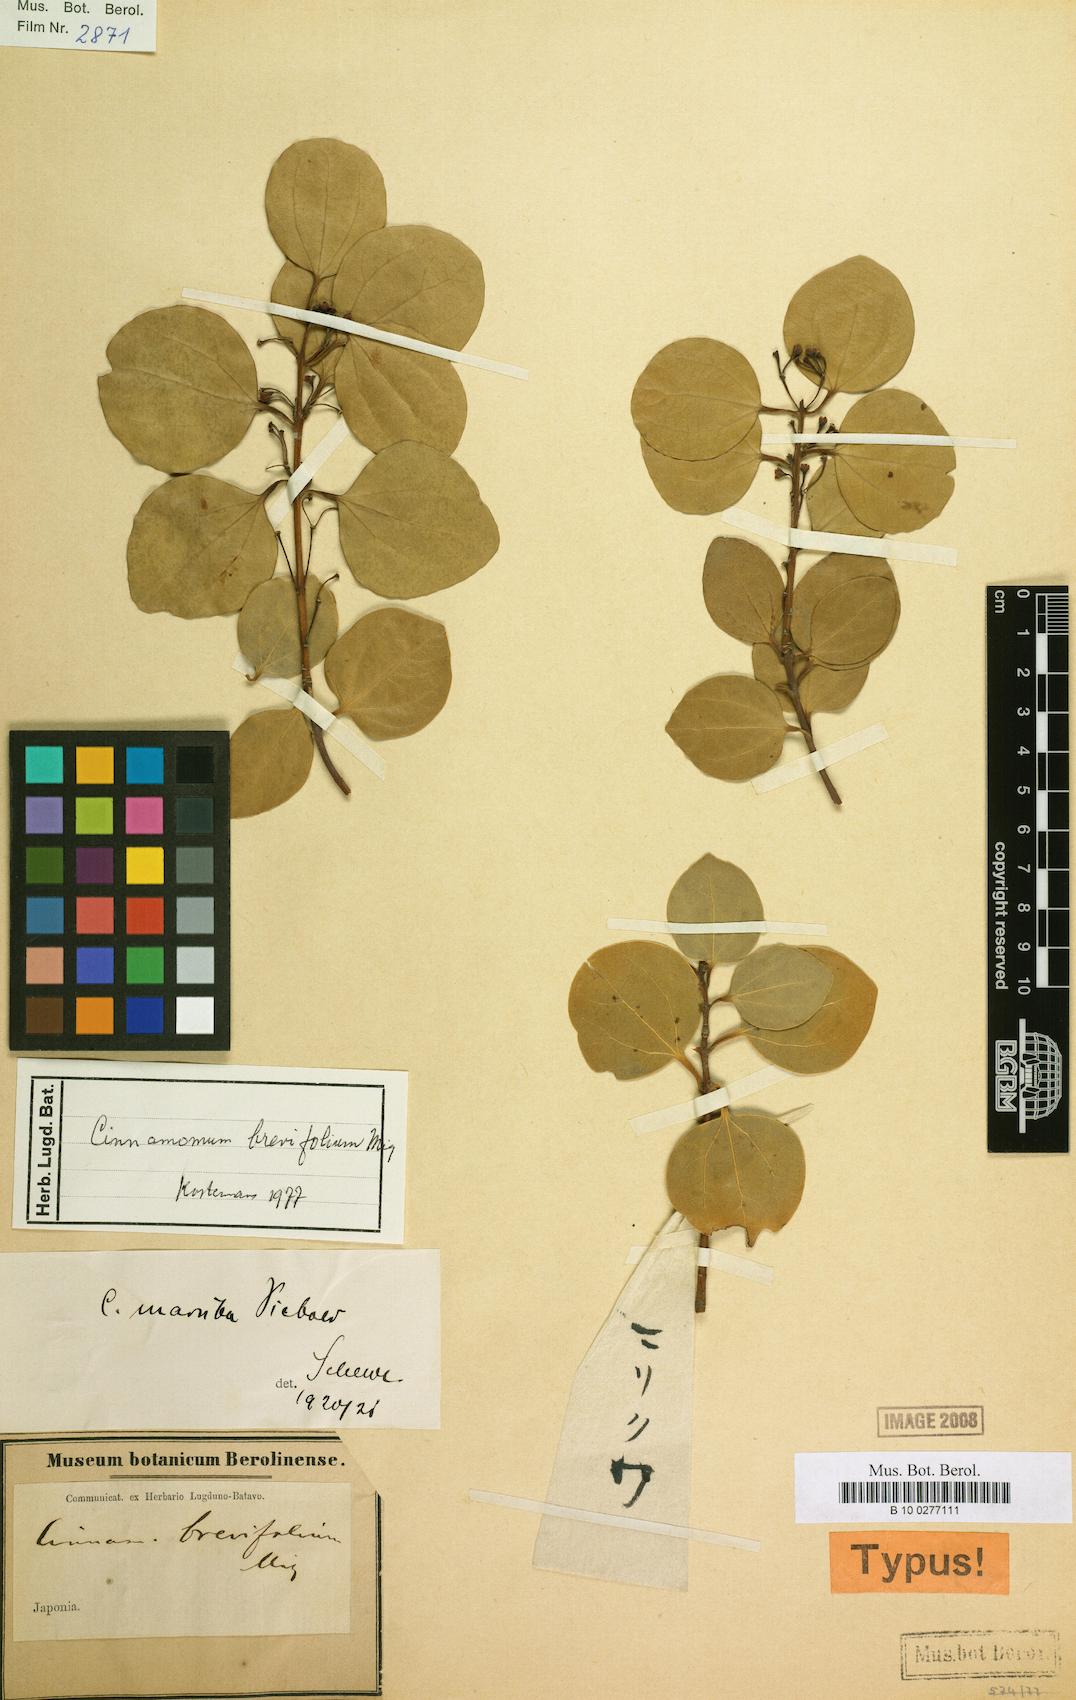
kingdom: Plantae
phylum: Tracheophyta
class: Magnoliopsida
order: Laurales
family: Lauraceae
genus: Cinnamomum
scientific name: Cinnamomum chekiangense
